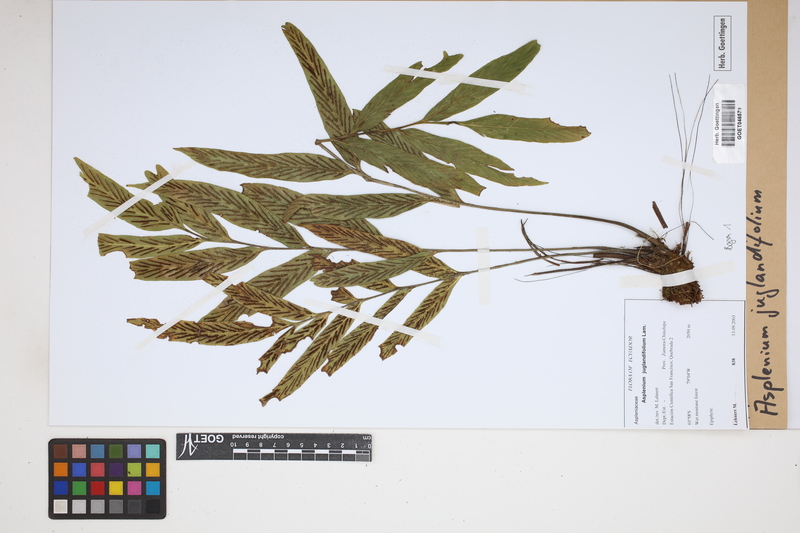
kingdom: Plantae
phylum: Tracheophyta
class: Polypodiopsida
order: Polypodiales
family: Aspleniaceae
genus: Asplenium
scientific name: Asplenium juglandifolium
